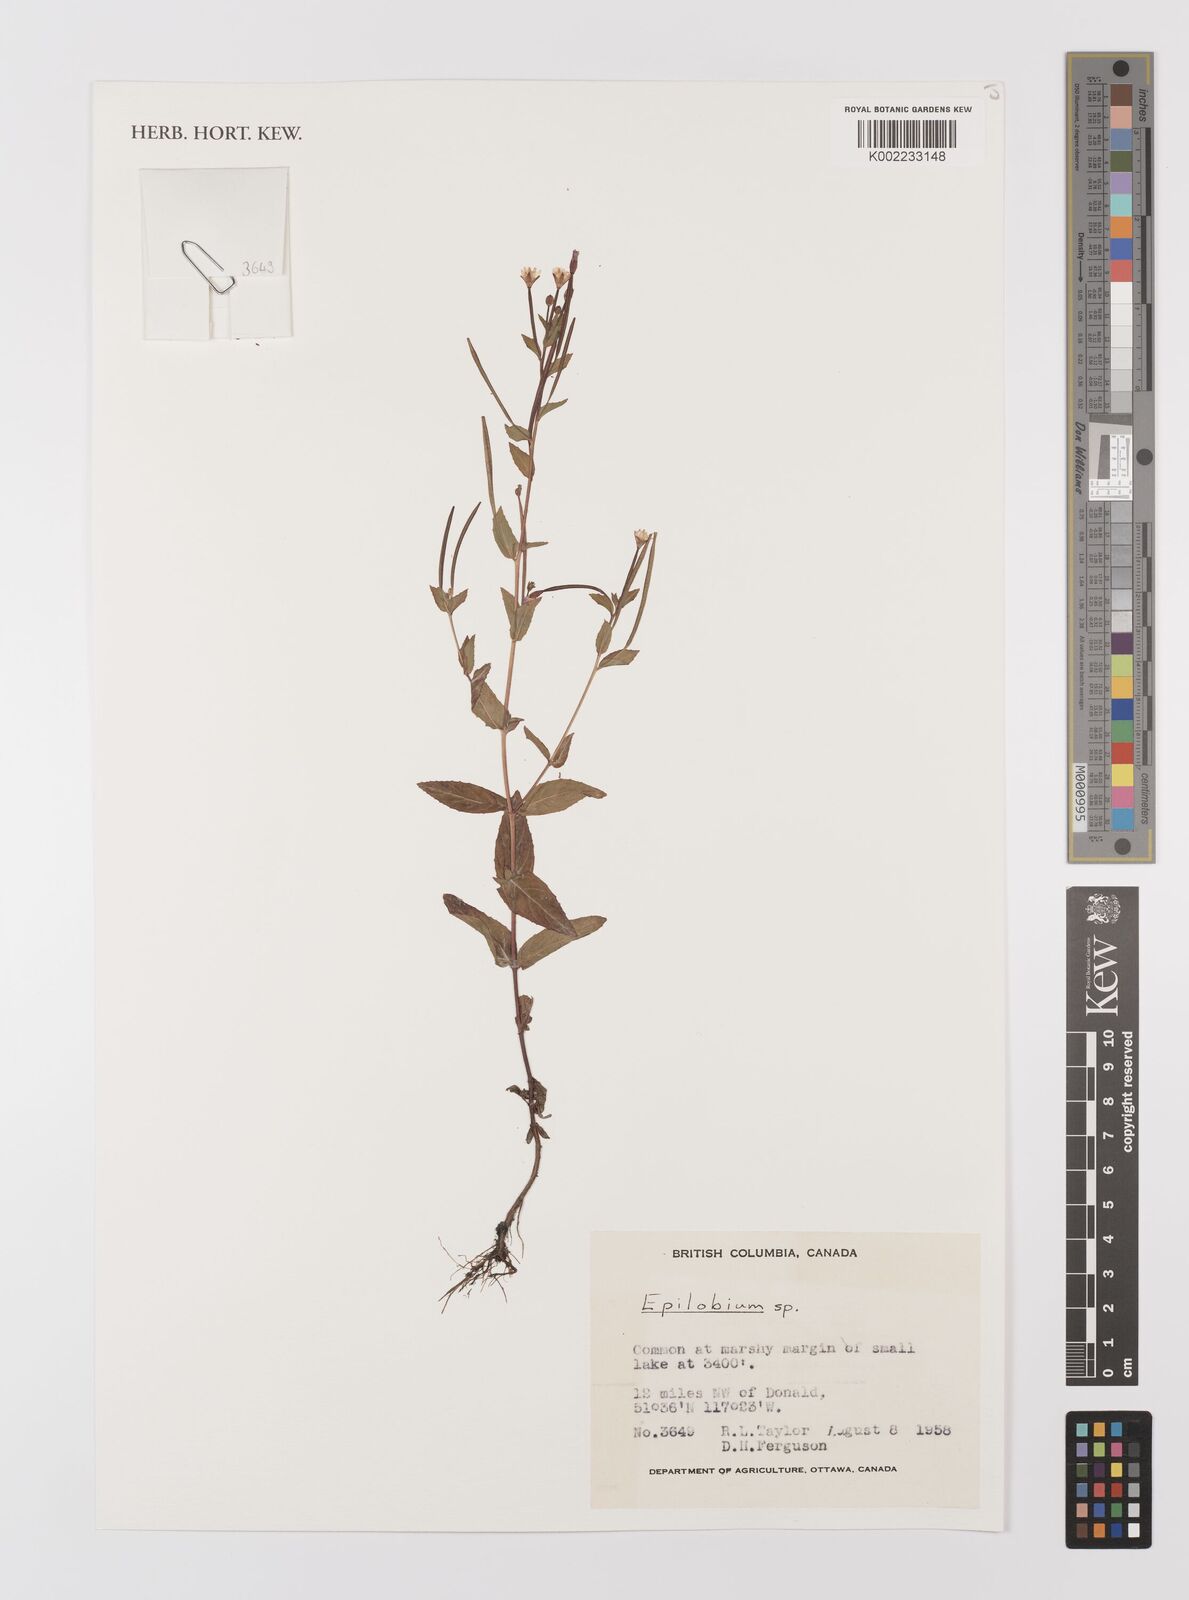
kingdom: Plantae
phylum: Tracheophyta
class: Magnoliopsida
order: Myrtales
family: Onagraceae
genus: Epilobium
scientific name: Epilobium
